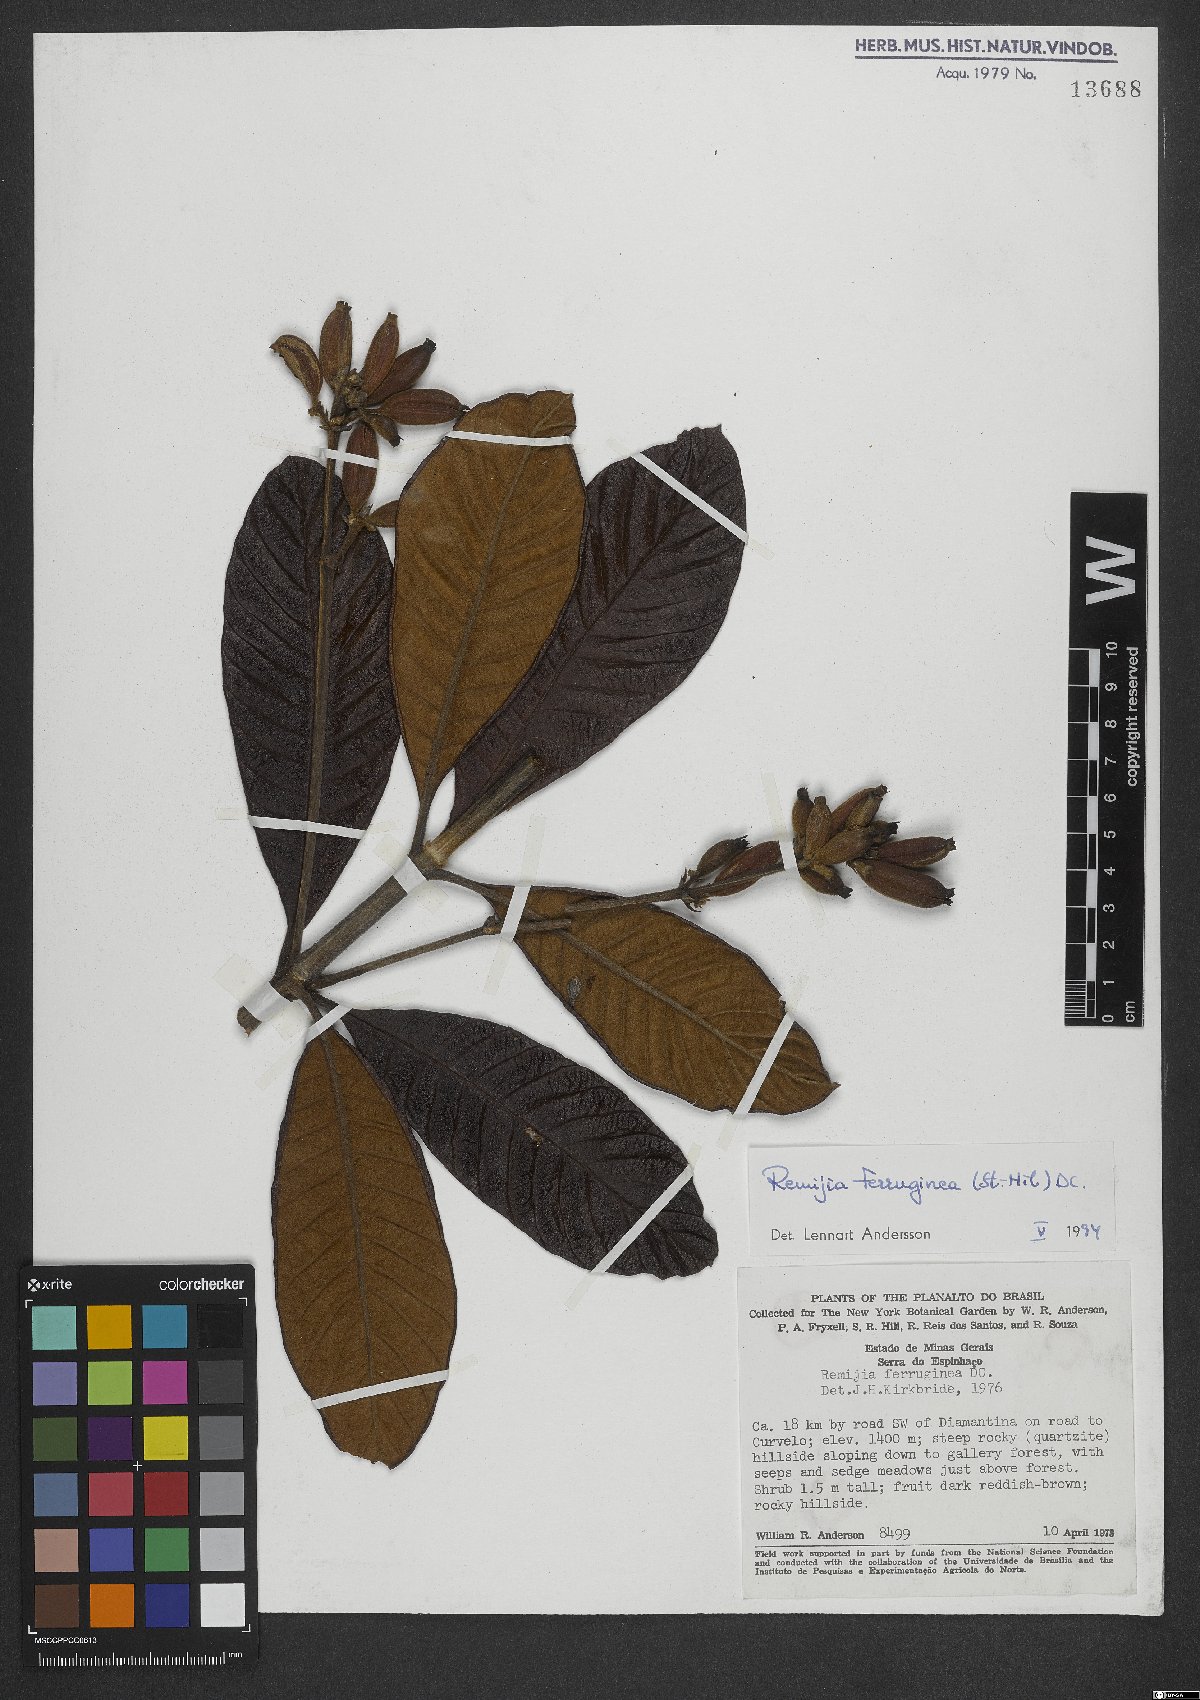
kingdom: Plantae
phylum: Tracheophyta
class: Magnoliopsida
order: Gentianales
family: Rubiaceae
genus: Remijia
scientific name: Remijia ferruginea
